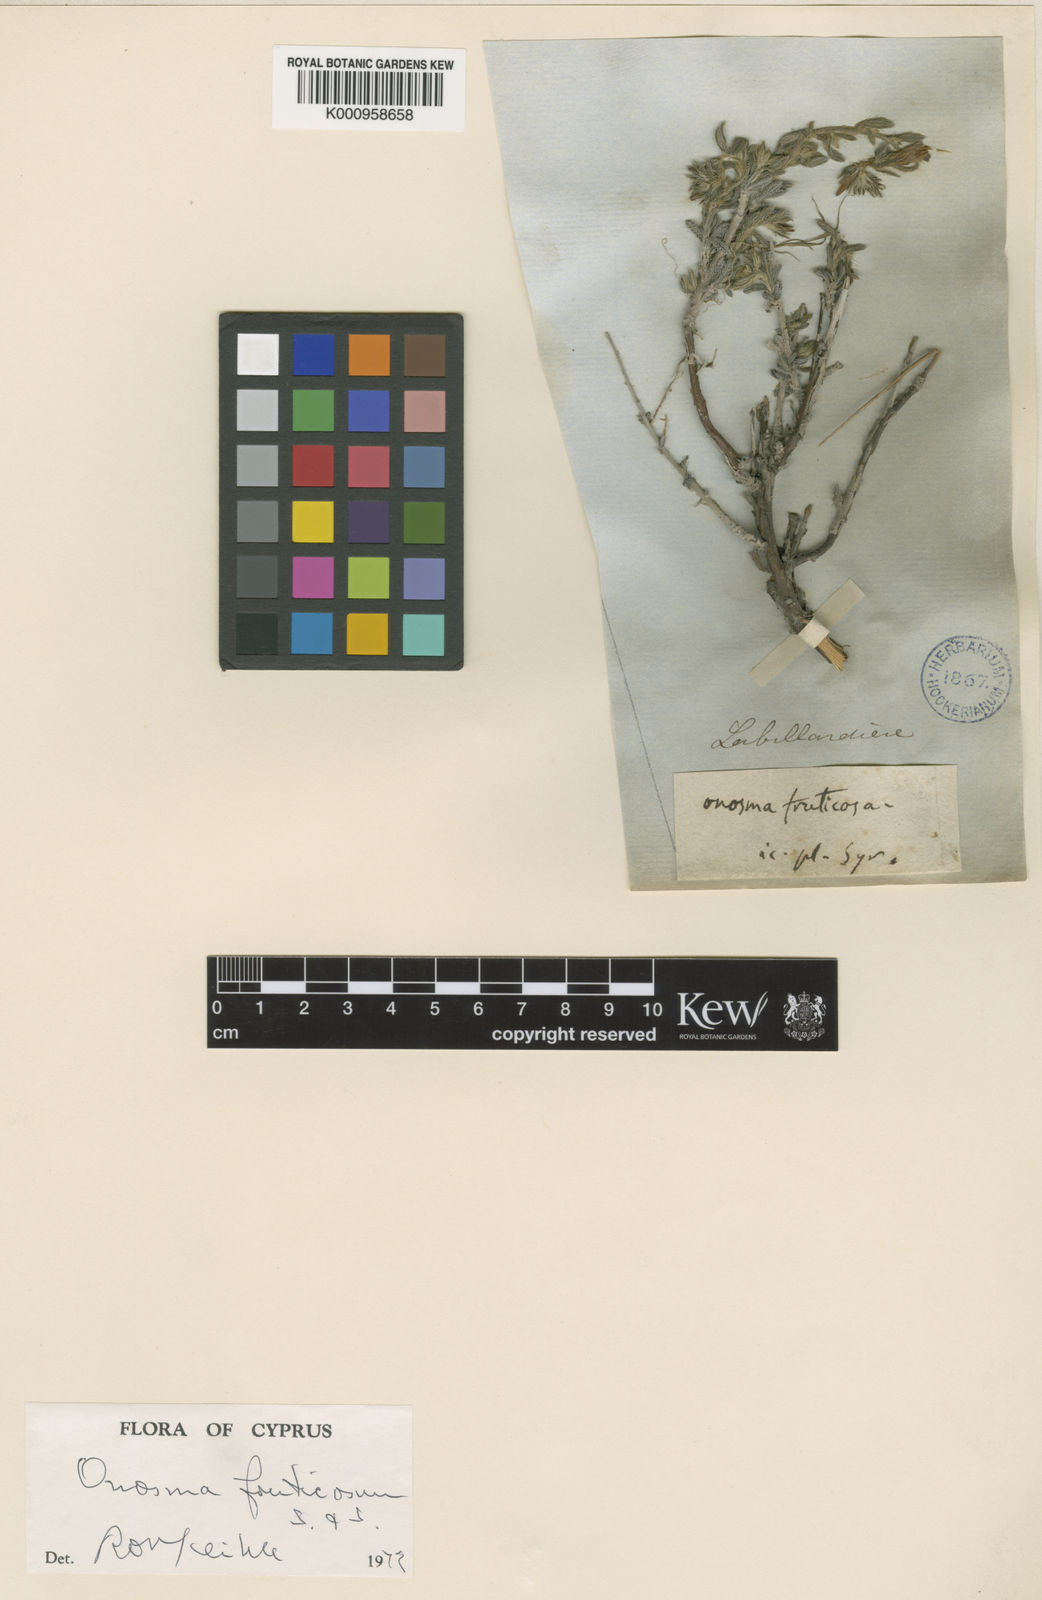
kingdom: Plantae
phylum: Tracheophyta
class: Magnoliopsida
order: Boraginales
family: Boraginaceae
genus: Onosma
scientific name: Onosma
